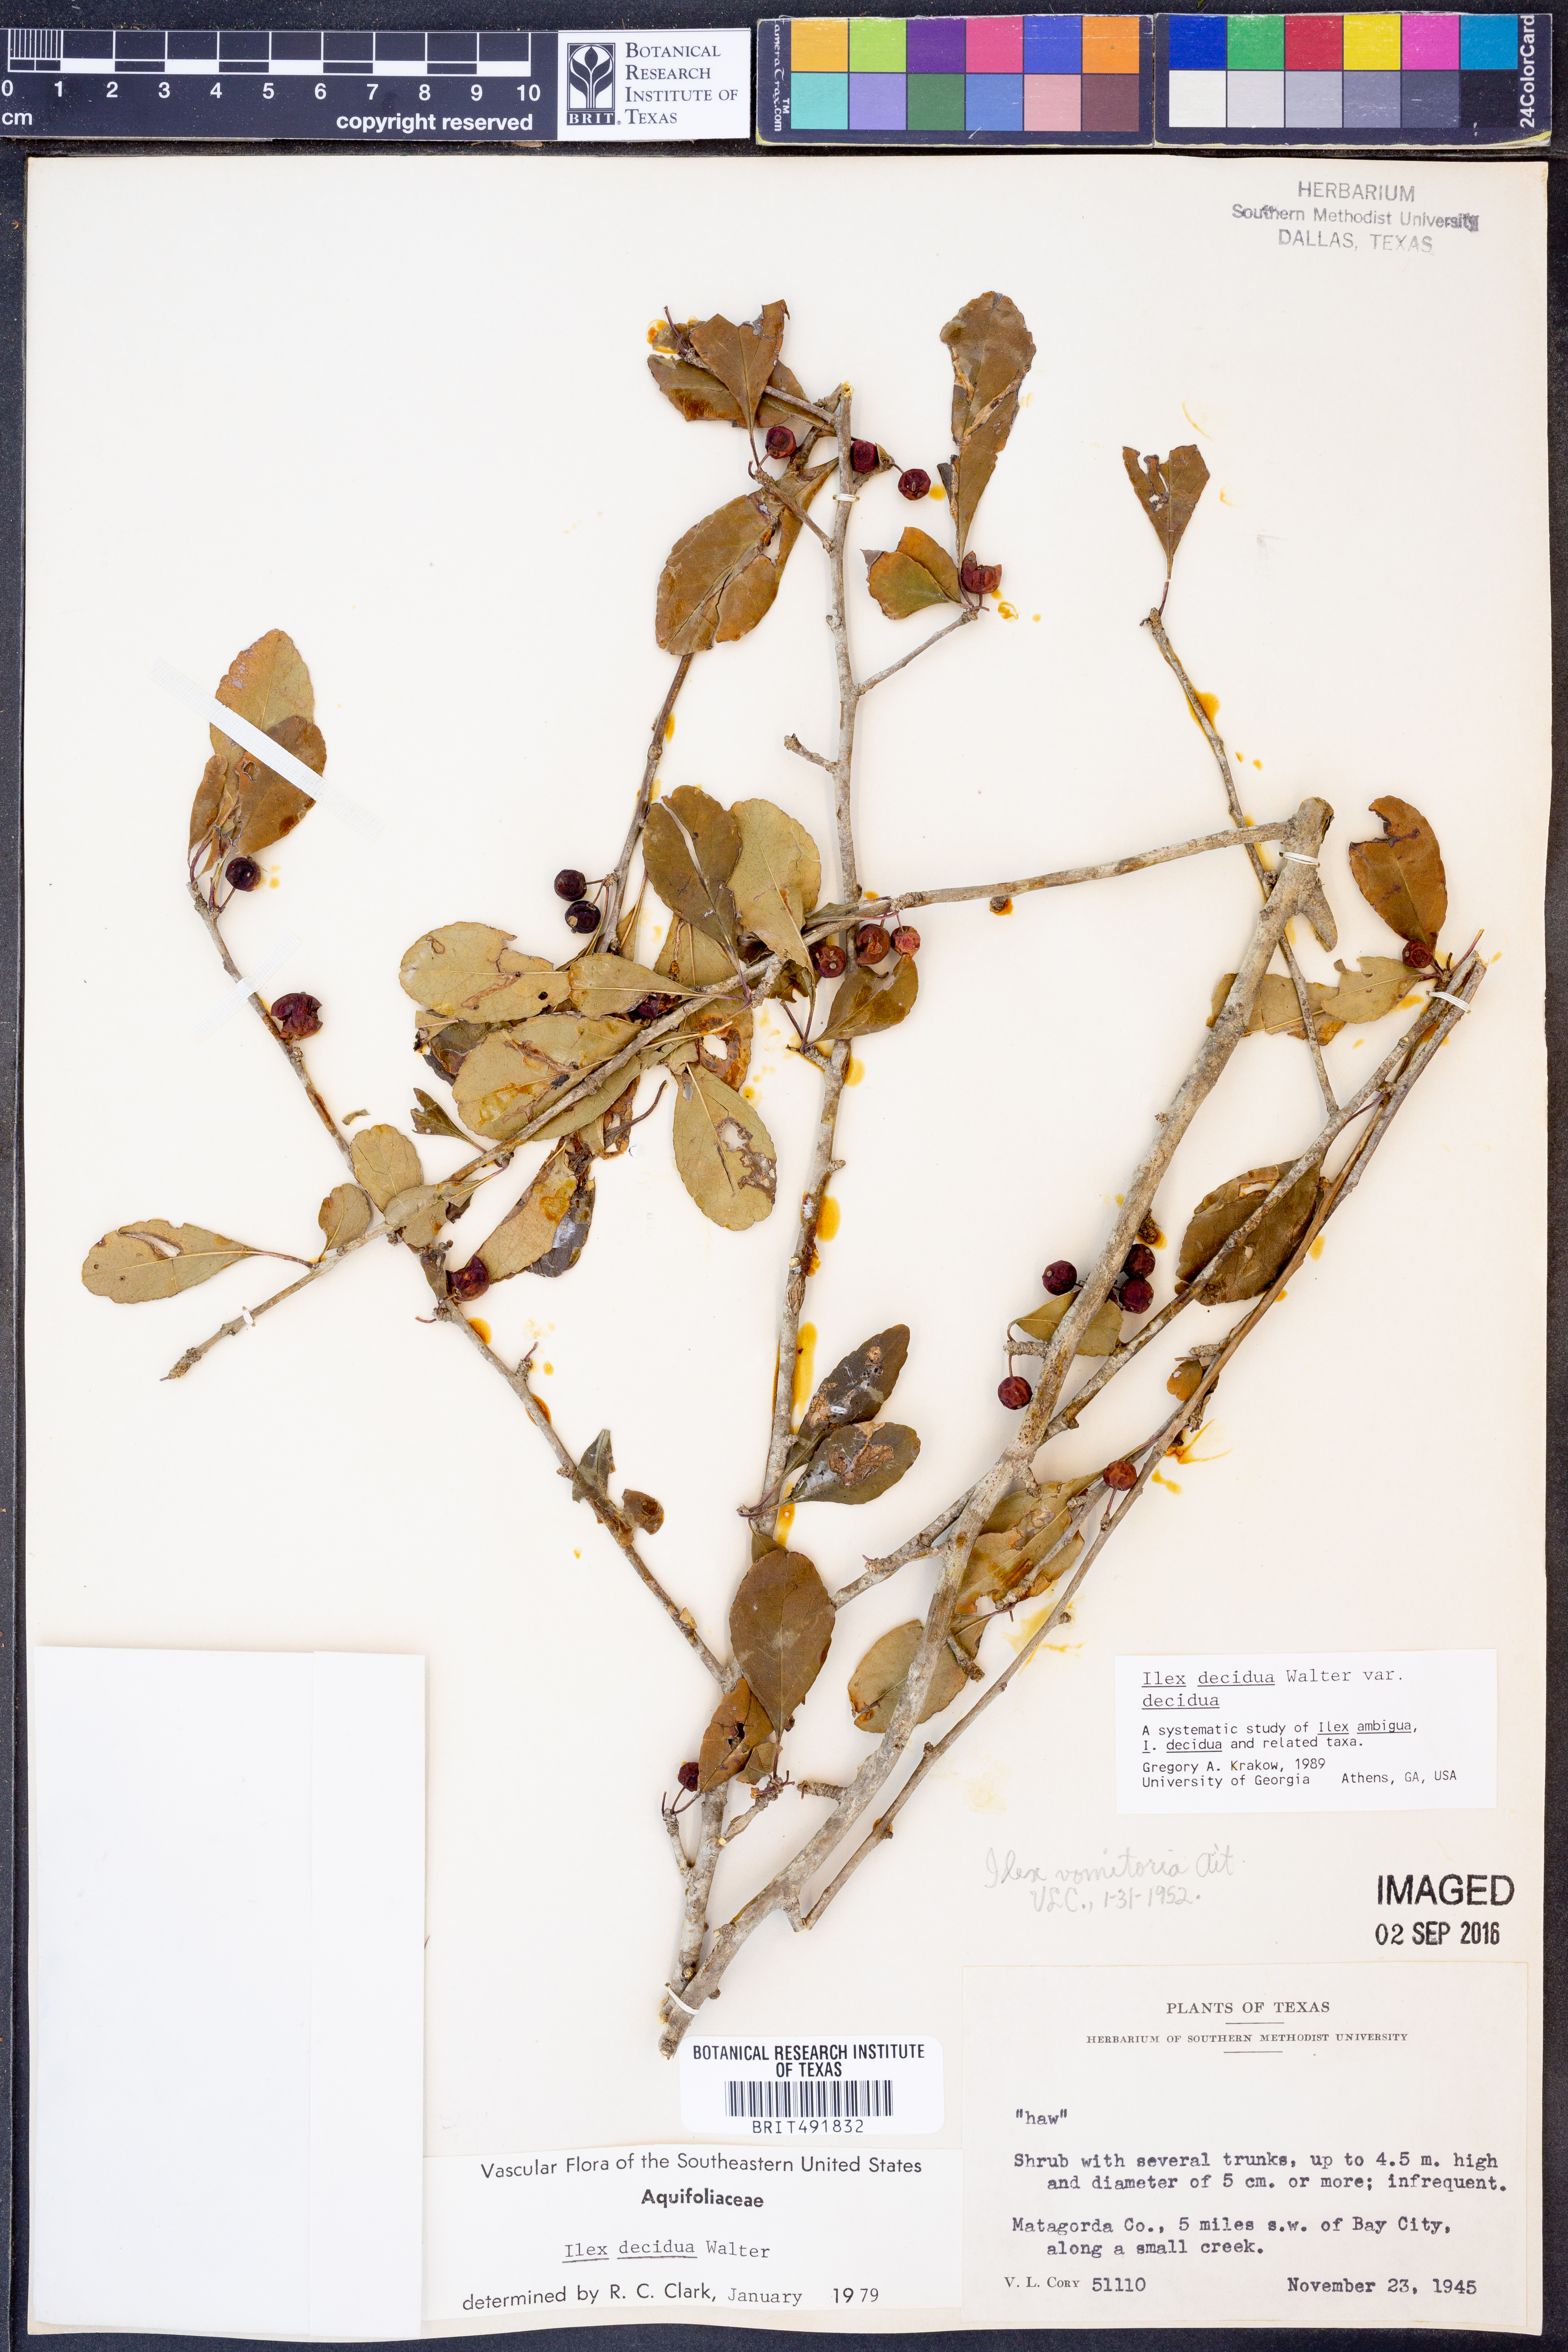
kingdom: Plantae
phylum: Tracheophyta
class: Magnoliopsida
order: Aquifoliales
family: Aquifoliaceae
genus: Ilex
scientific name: Ilex decidua
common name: Possum-haw
